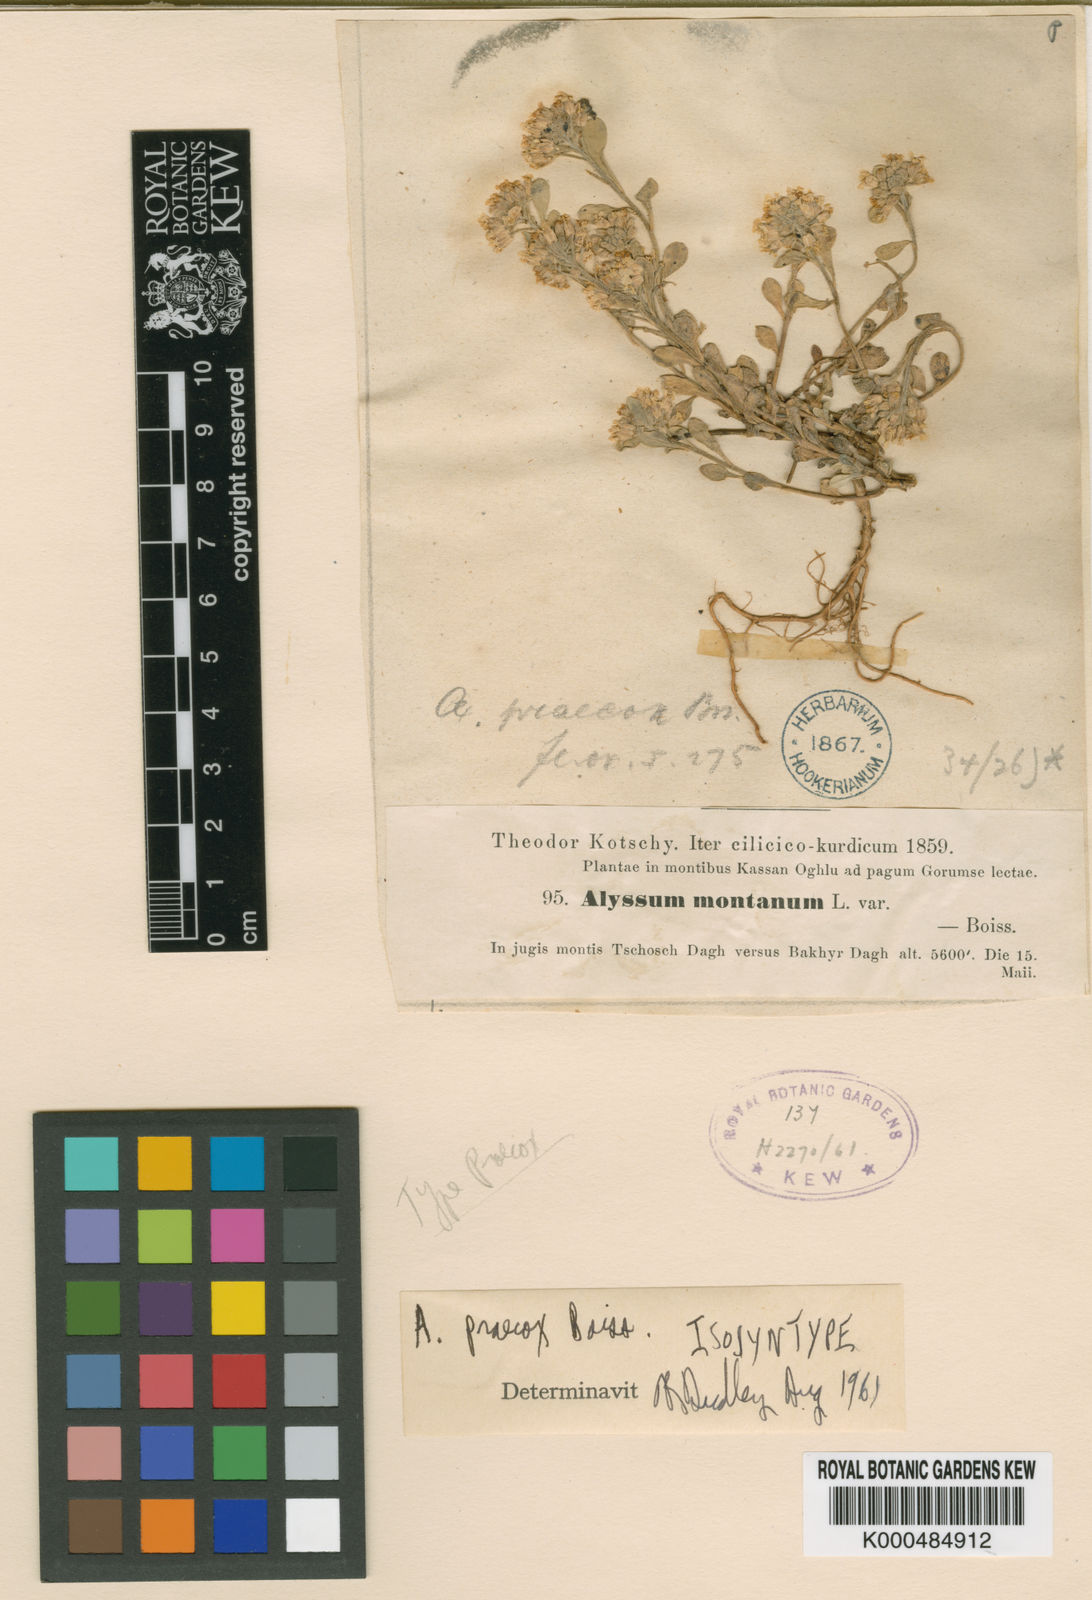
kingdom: Plantae
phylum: Tracheophyta
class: Magnoliopsida
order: Brassicales
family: Brassicaceae
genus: Alyssum
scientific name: Alyssum praecox
